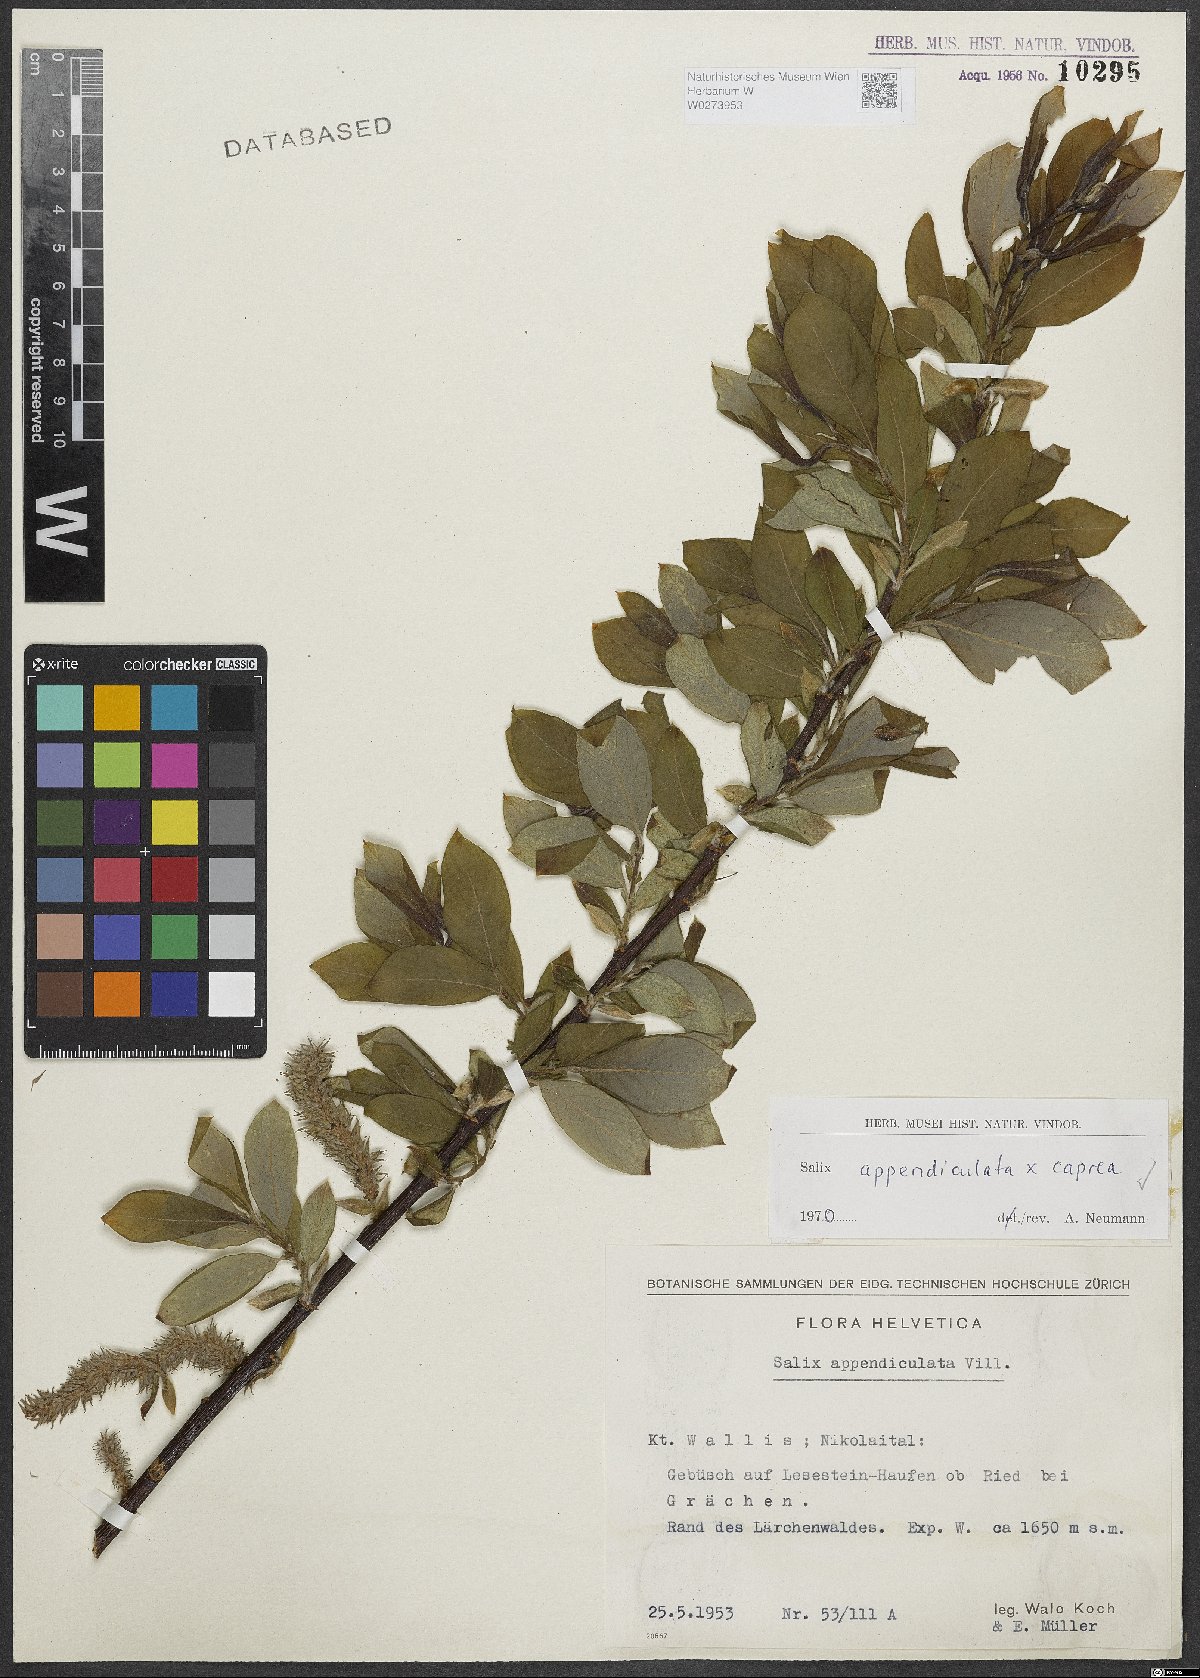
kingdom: Plantae
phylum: Tracheophyta
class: Magnoliopsida
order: Malpighiales
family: Salicaceae
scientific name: Salicaceae
